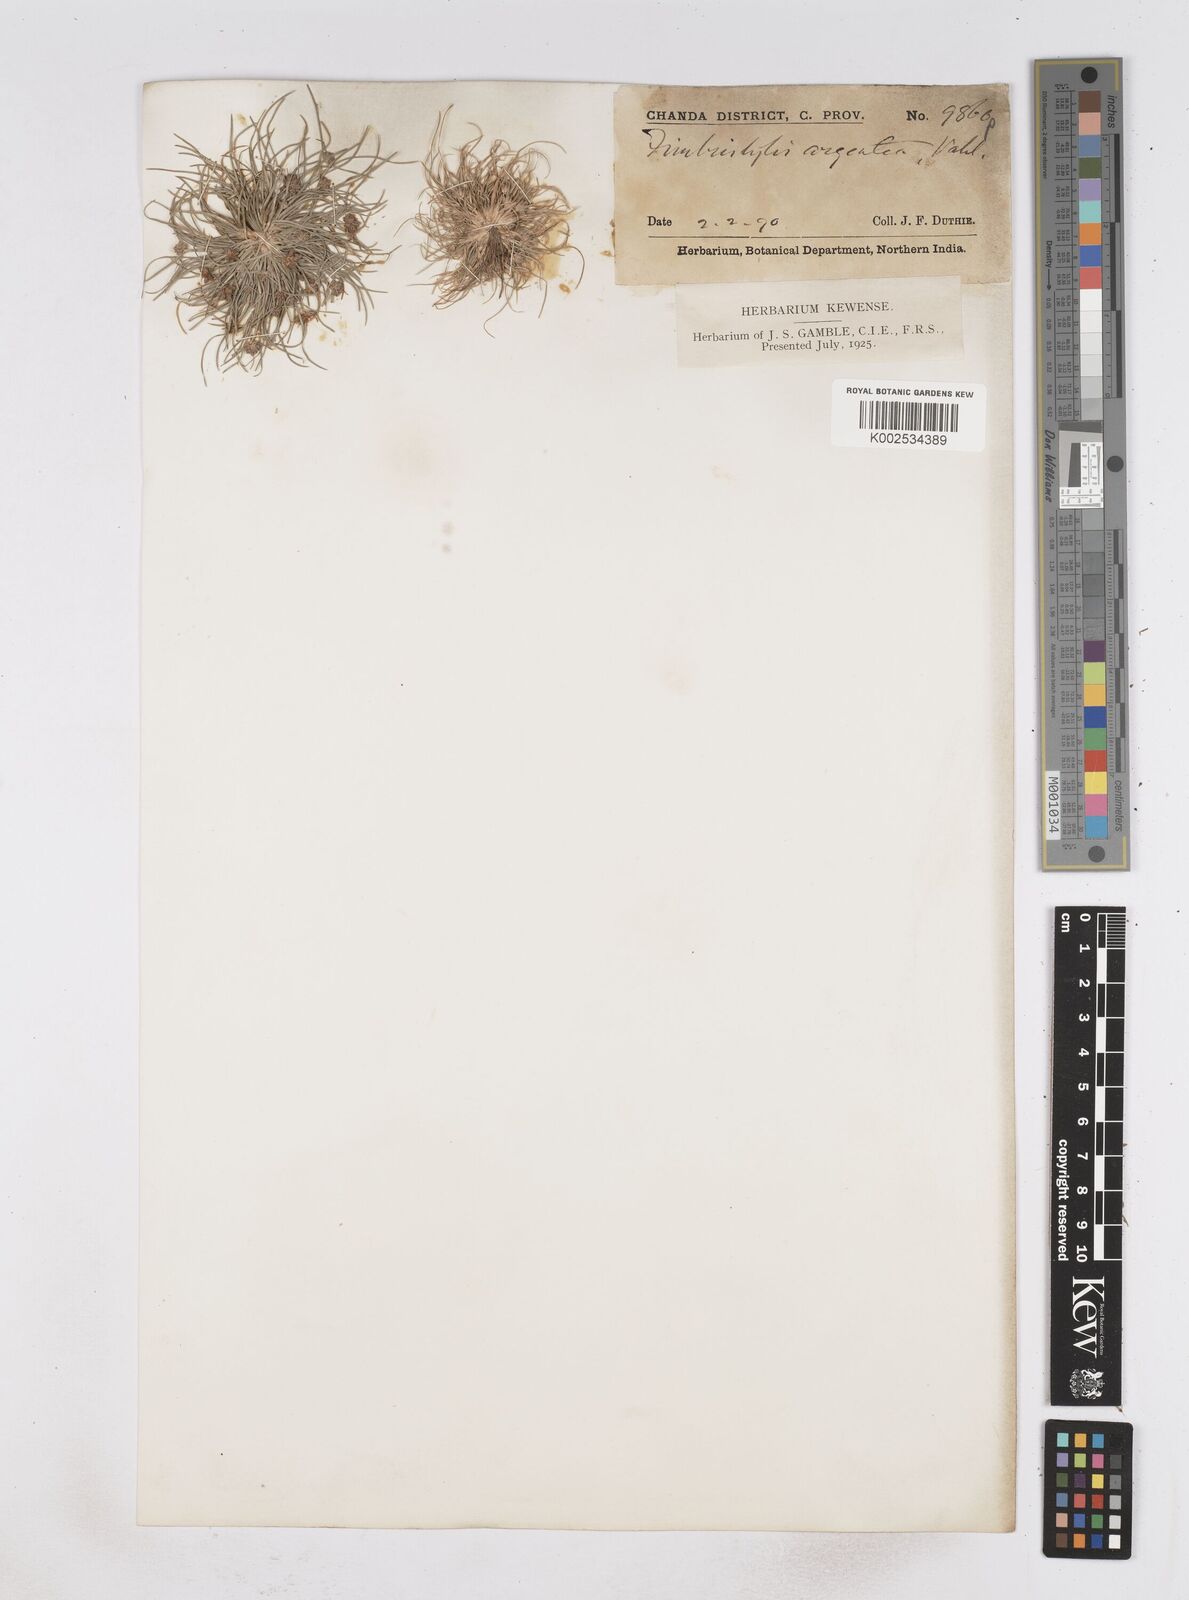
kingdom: Plantae
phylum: Tracheophyta
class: Liliopsida
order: Poales
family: Cyperaceae
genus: Fimbristylis
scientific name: Fimbristylis argentea
